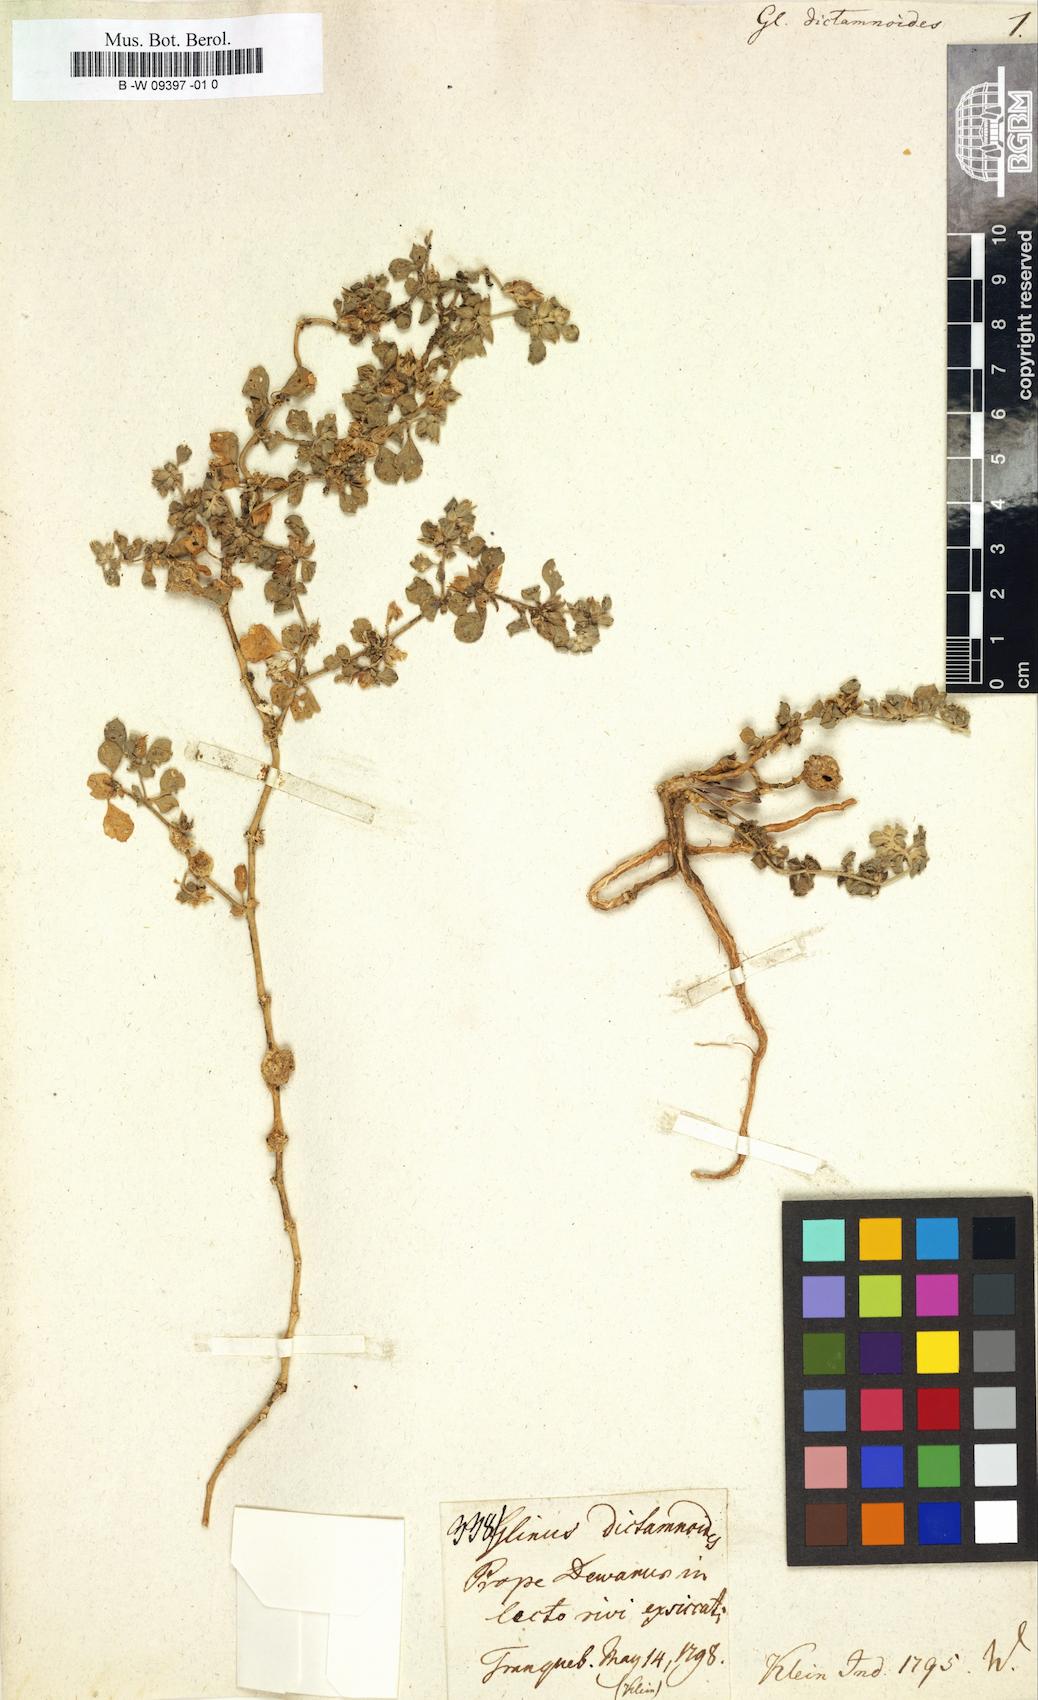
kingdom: Plantae
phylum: Tracheophyta
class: Magnoliopsida
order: Caryophyllales
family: Molluginaceae
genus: Glinus
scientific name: Glinus lotoides
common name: Lotus sweetjuice
